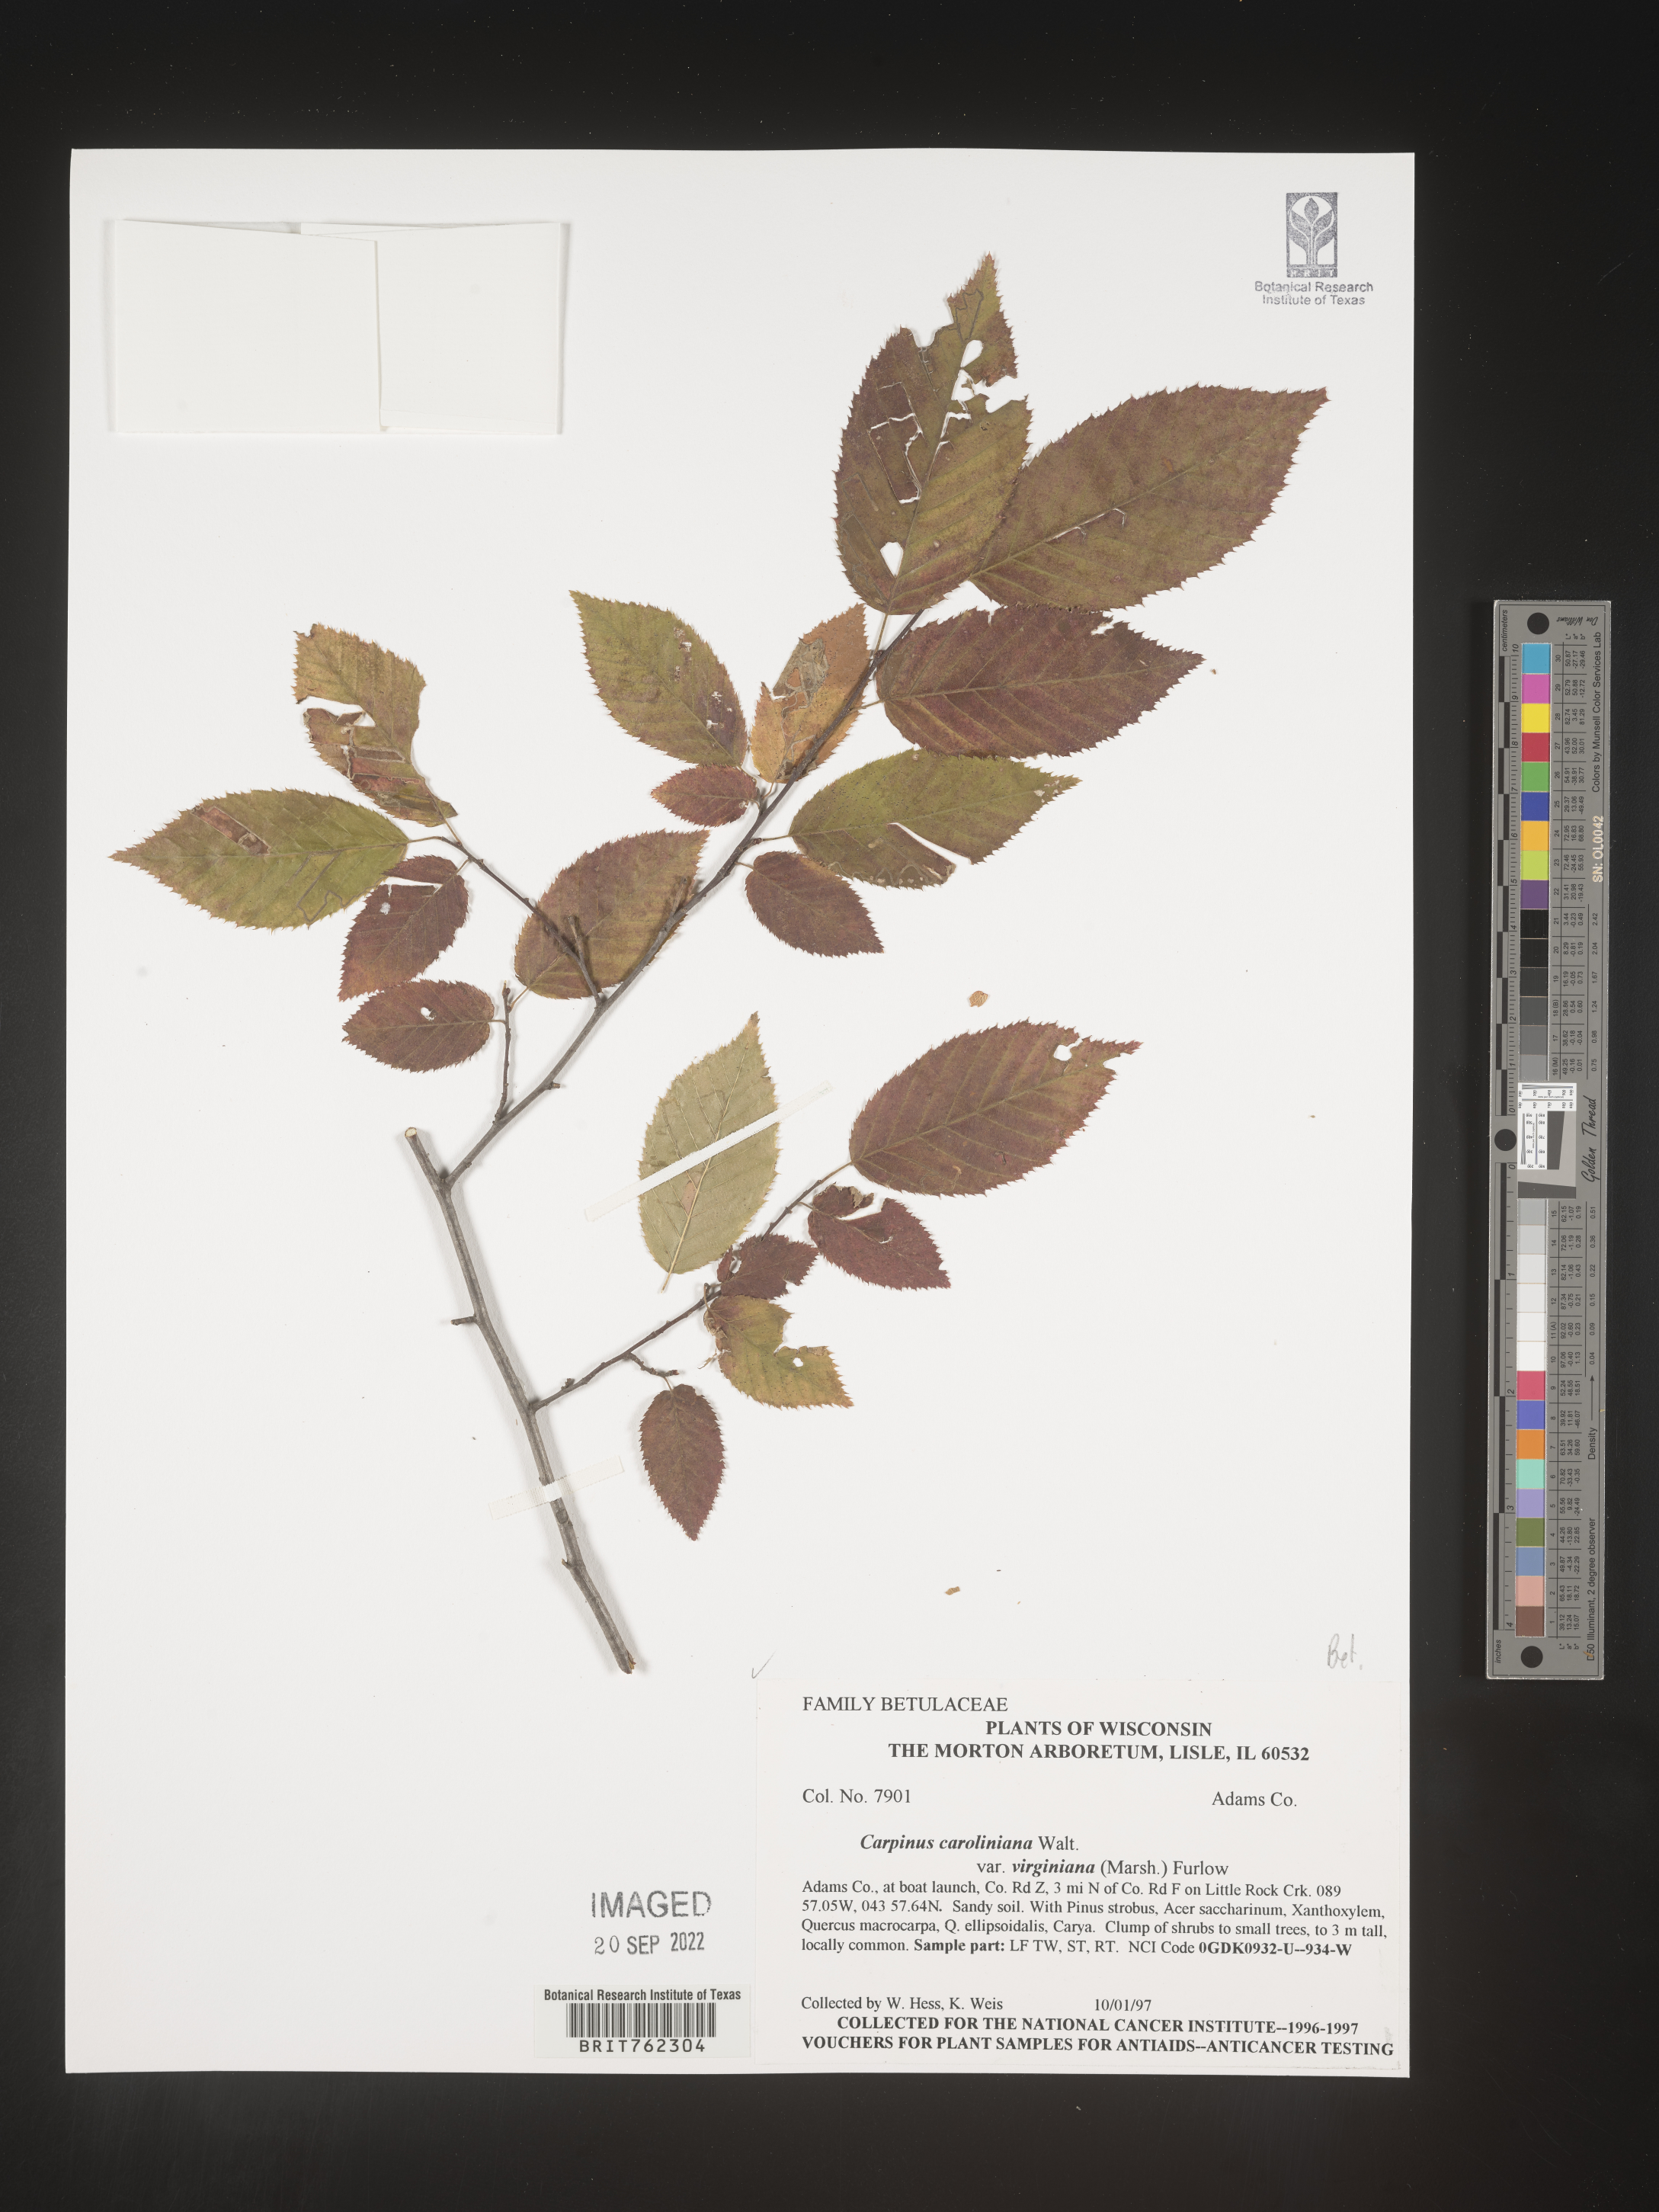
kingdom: Plantae
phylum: Tracheophyta
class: Magnoliopsida
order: Fagales
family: Betulaceae
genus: Carpinus
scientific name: Carpinus caroliniana
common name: American hornbeam
